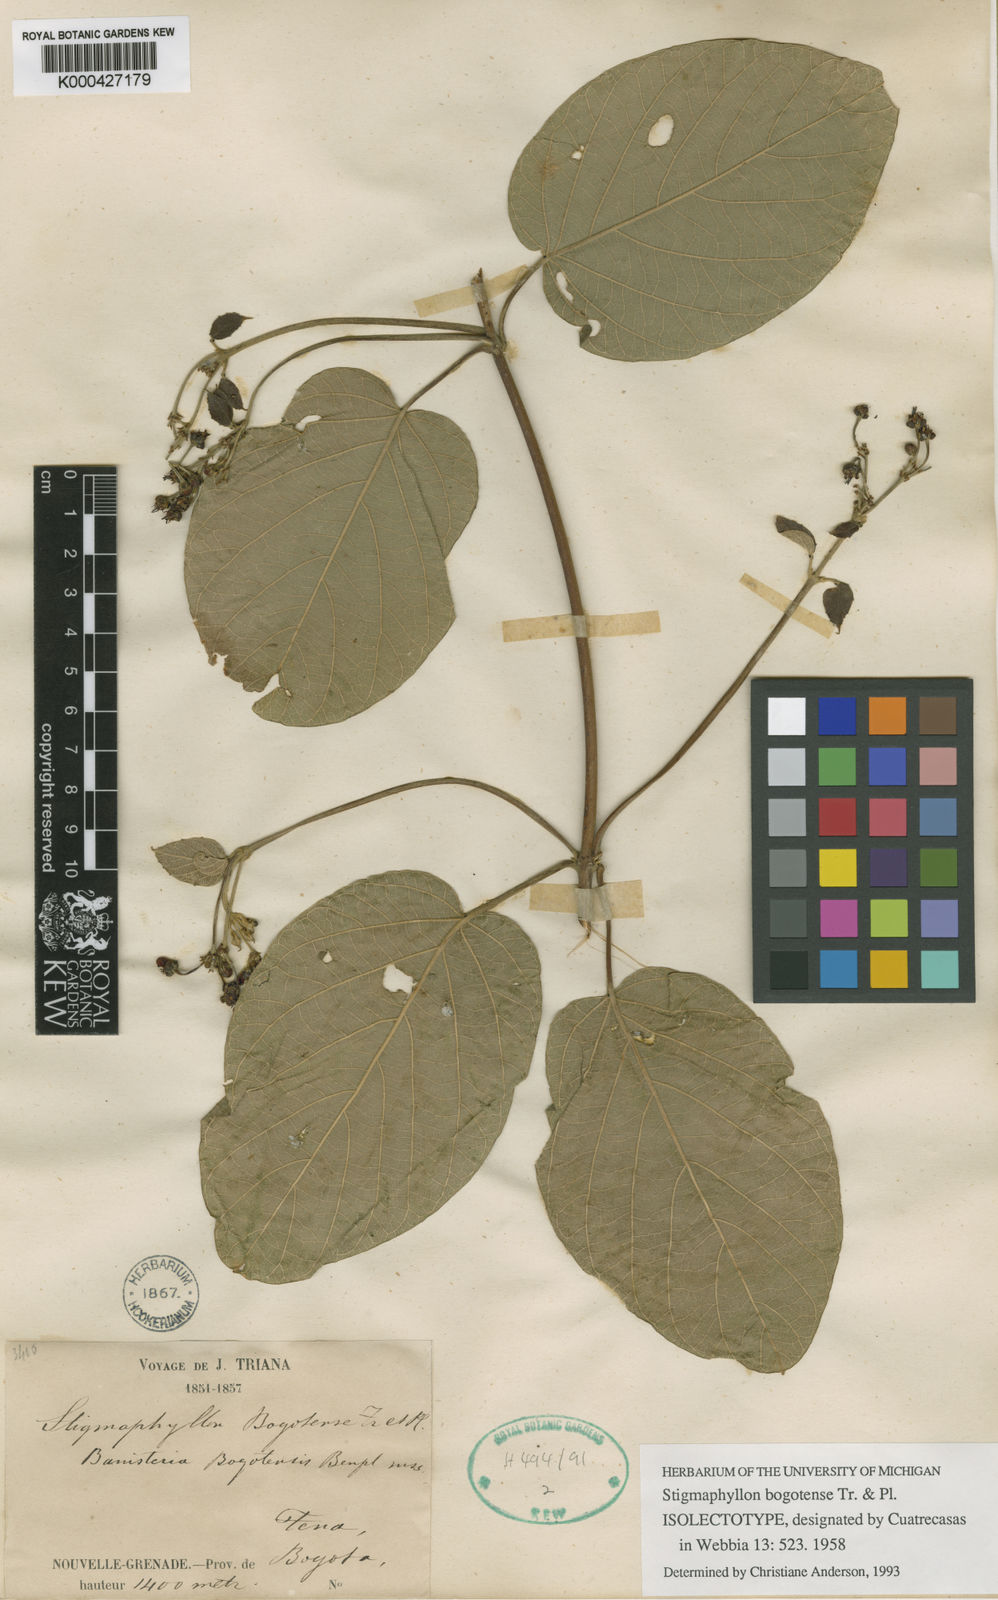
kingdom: Plantae
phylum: Tracheophyta
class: Magnoliopsida
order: Malpighiales
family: Malpighiaceae
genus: Stigmaphyllon
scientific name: Stigmaphyllon bogotense
